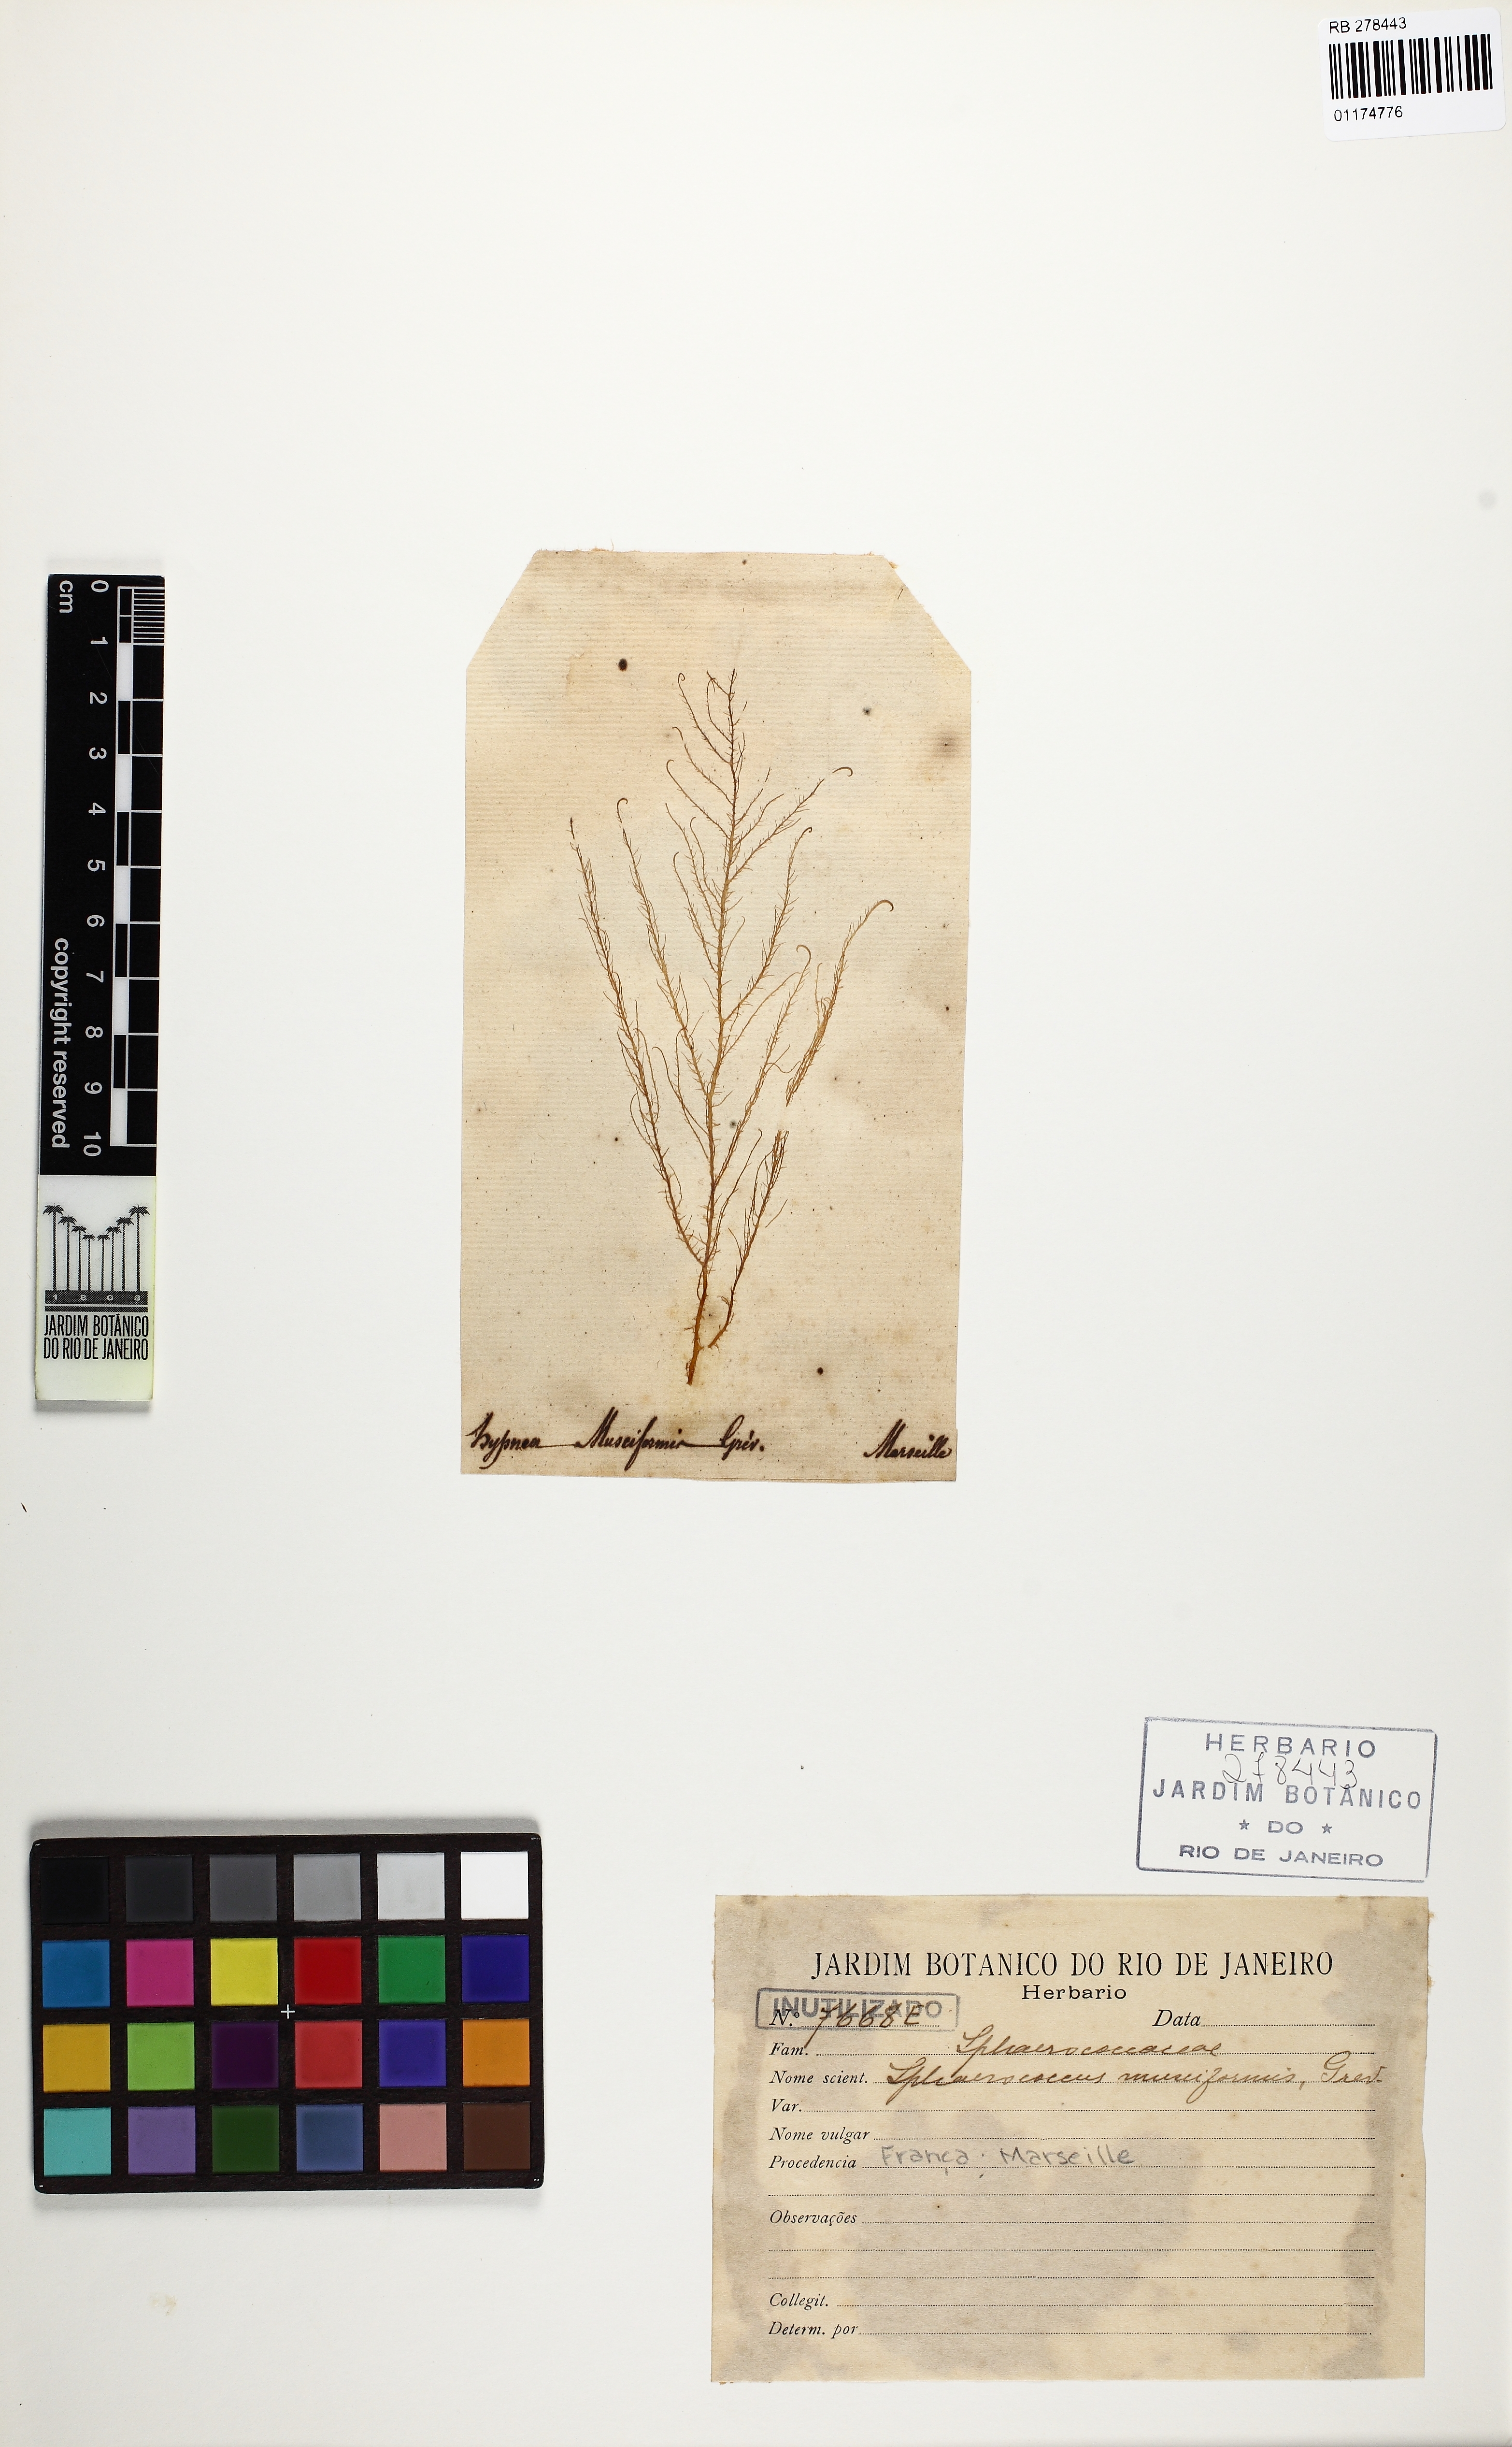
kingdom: Plantae
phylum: Rhodophyta
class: Florideophyceae
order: Gigartinales
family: Cystocloniaceae
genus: Hypnea
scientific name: Hypnea musciformis
